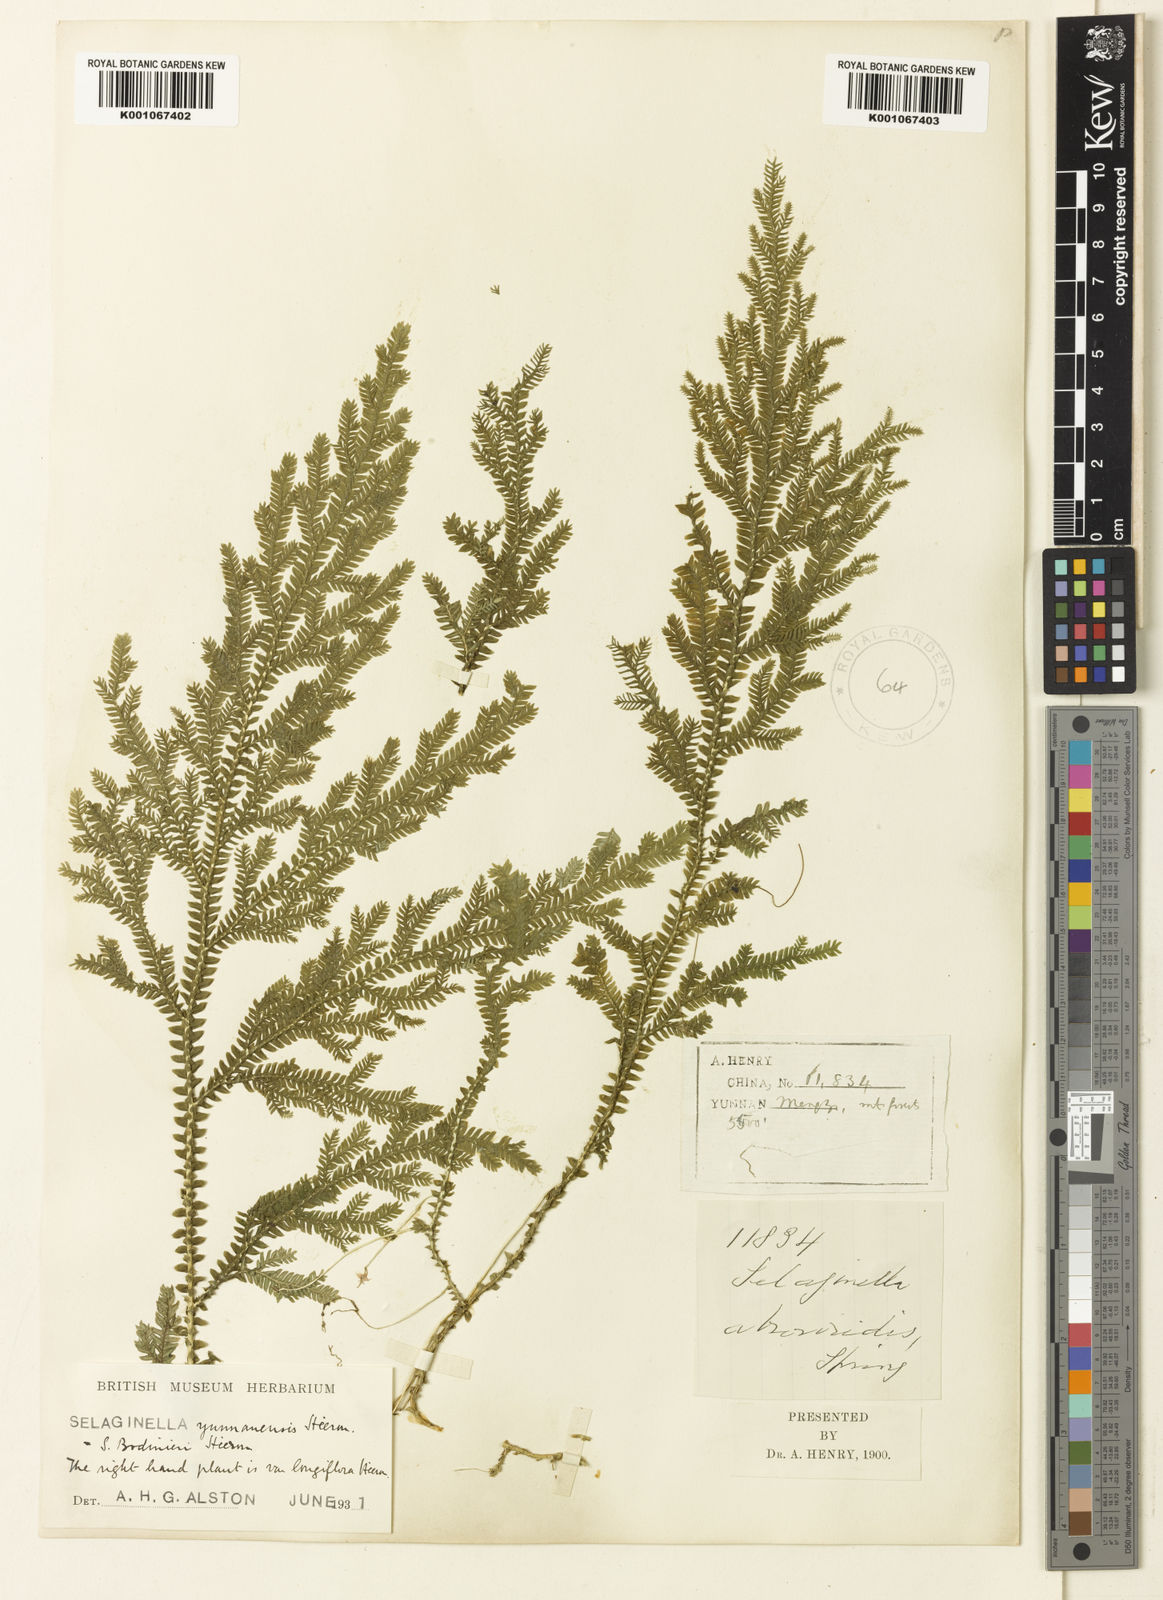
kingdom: Plantae
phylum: Tracheophyta
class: Lycopodiopsida
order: Selaginellales
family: Selaginellaceae
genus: Selaginella
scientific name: Selaginella bodinieri
